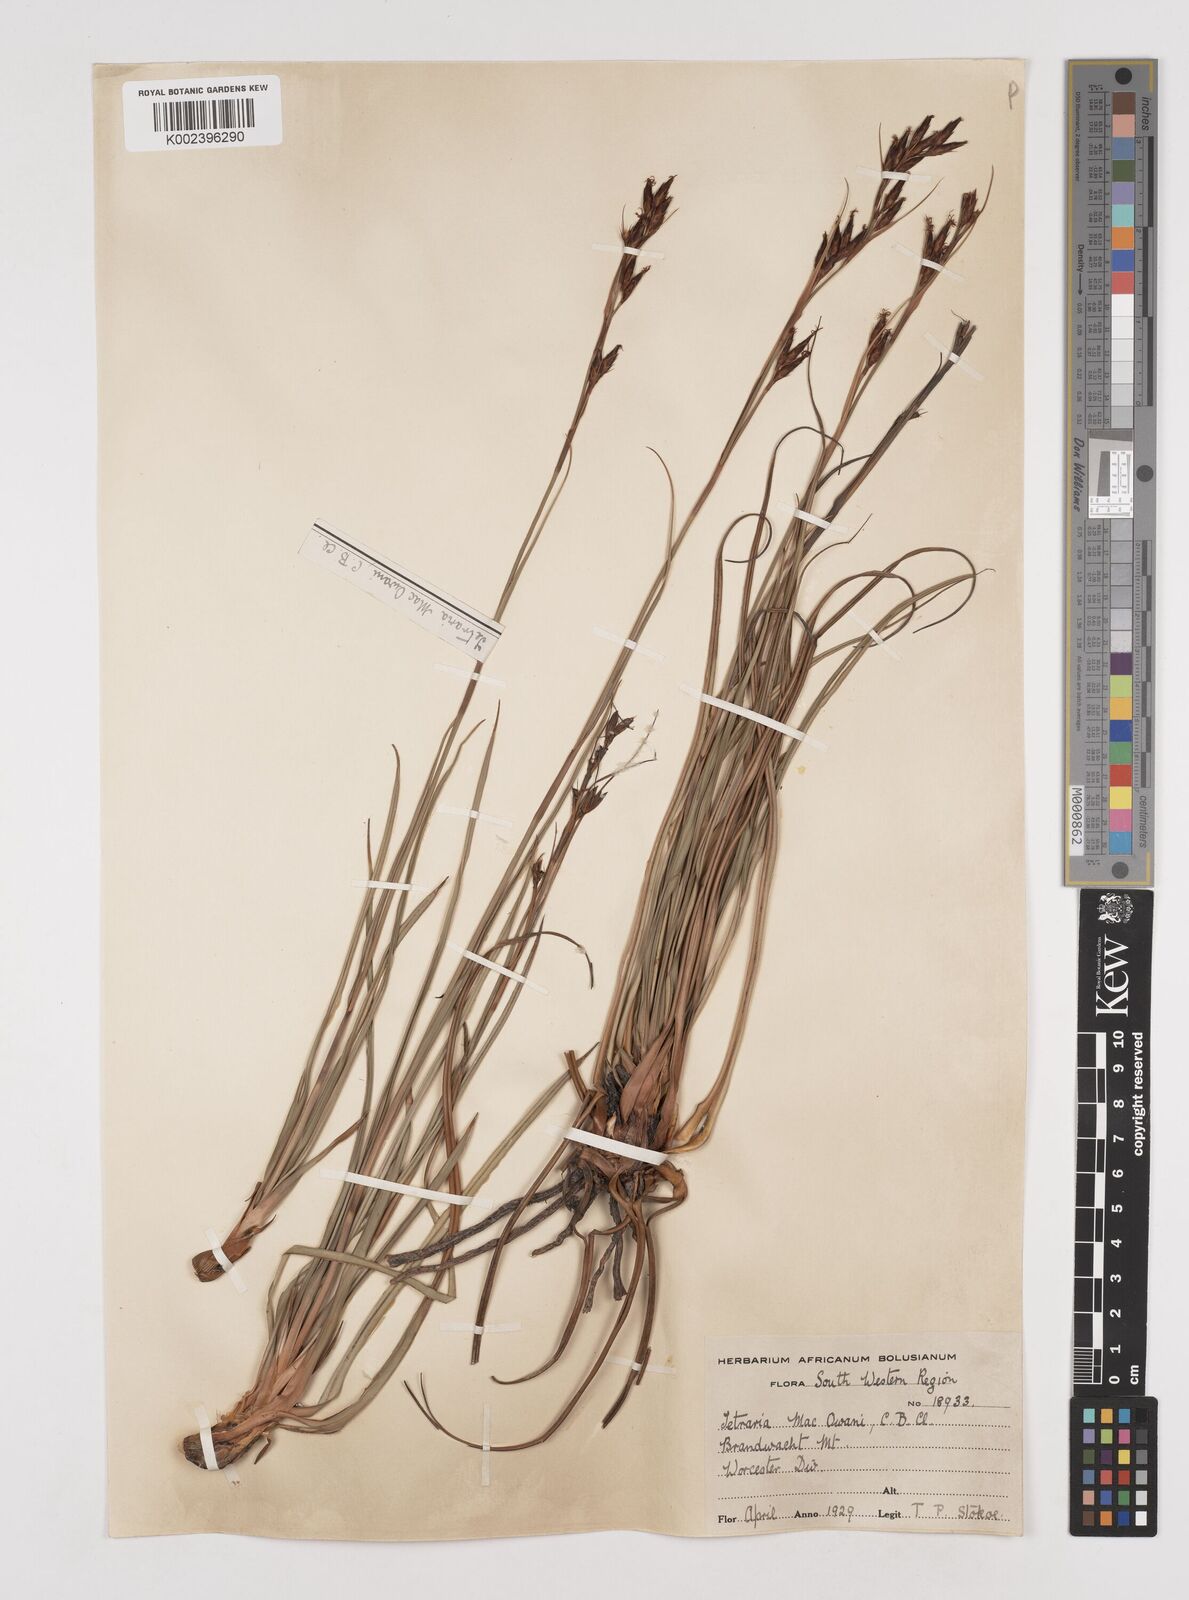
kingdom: Plantae
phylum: Tracheophyta
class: Liliopsida
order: Poales
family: Cyperaceae
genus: Tetraria
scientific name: Tetraria macowaniana
